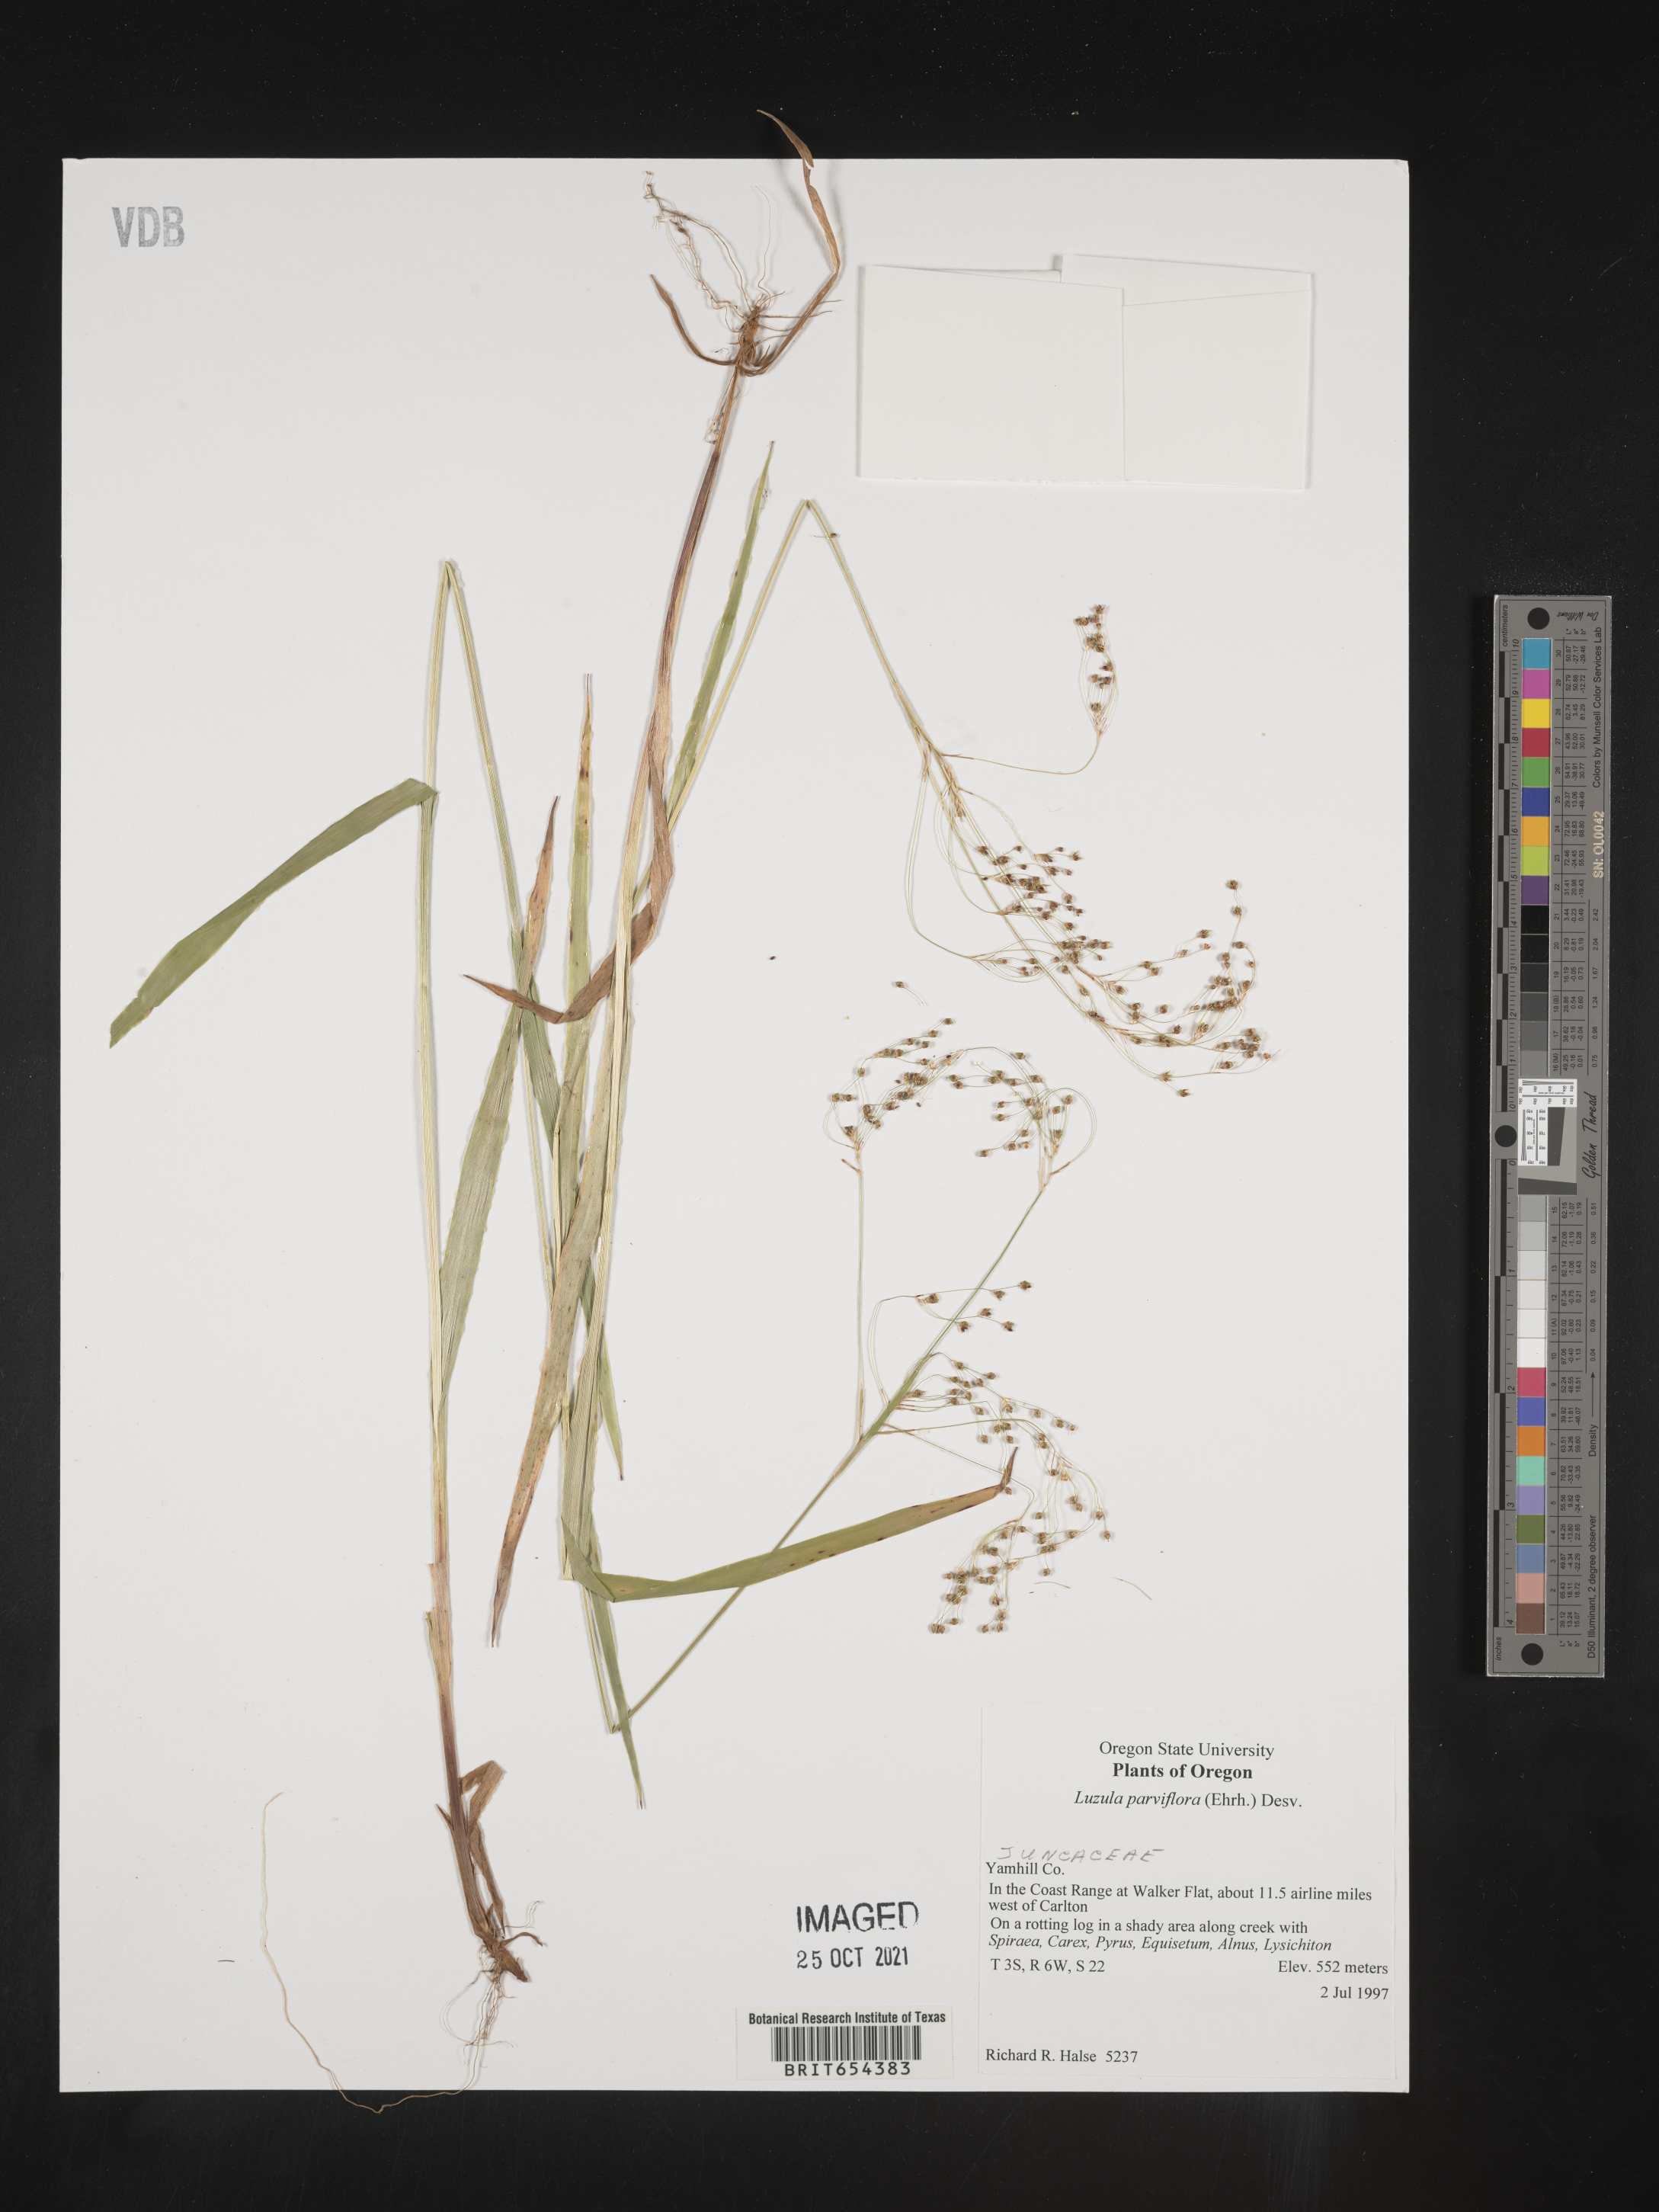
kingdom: Plantae
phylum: Tracheophyta
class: Liliopsida
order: Poales
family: Juncaceae
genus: Luzula
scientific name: Luzula parviflora
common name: Millet woodrush
